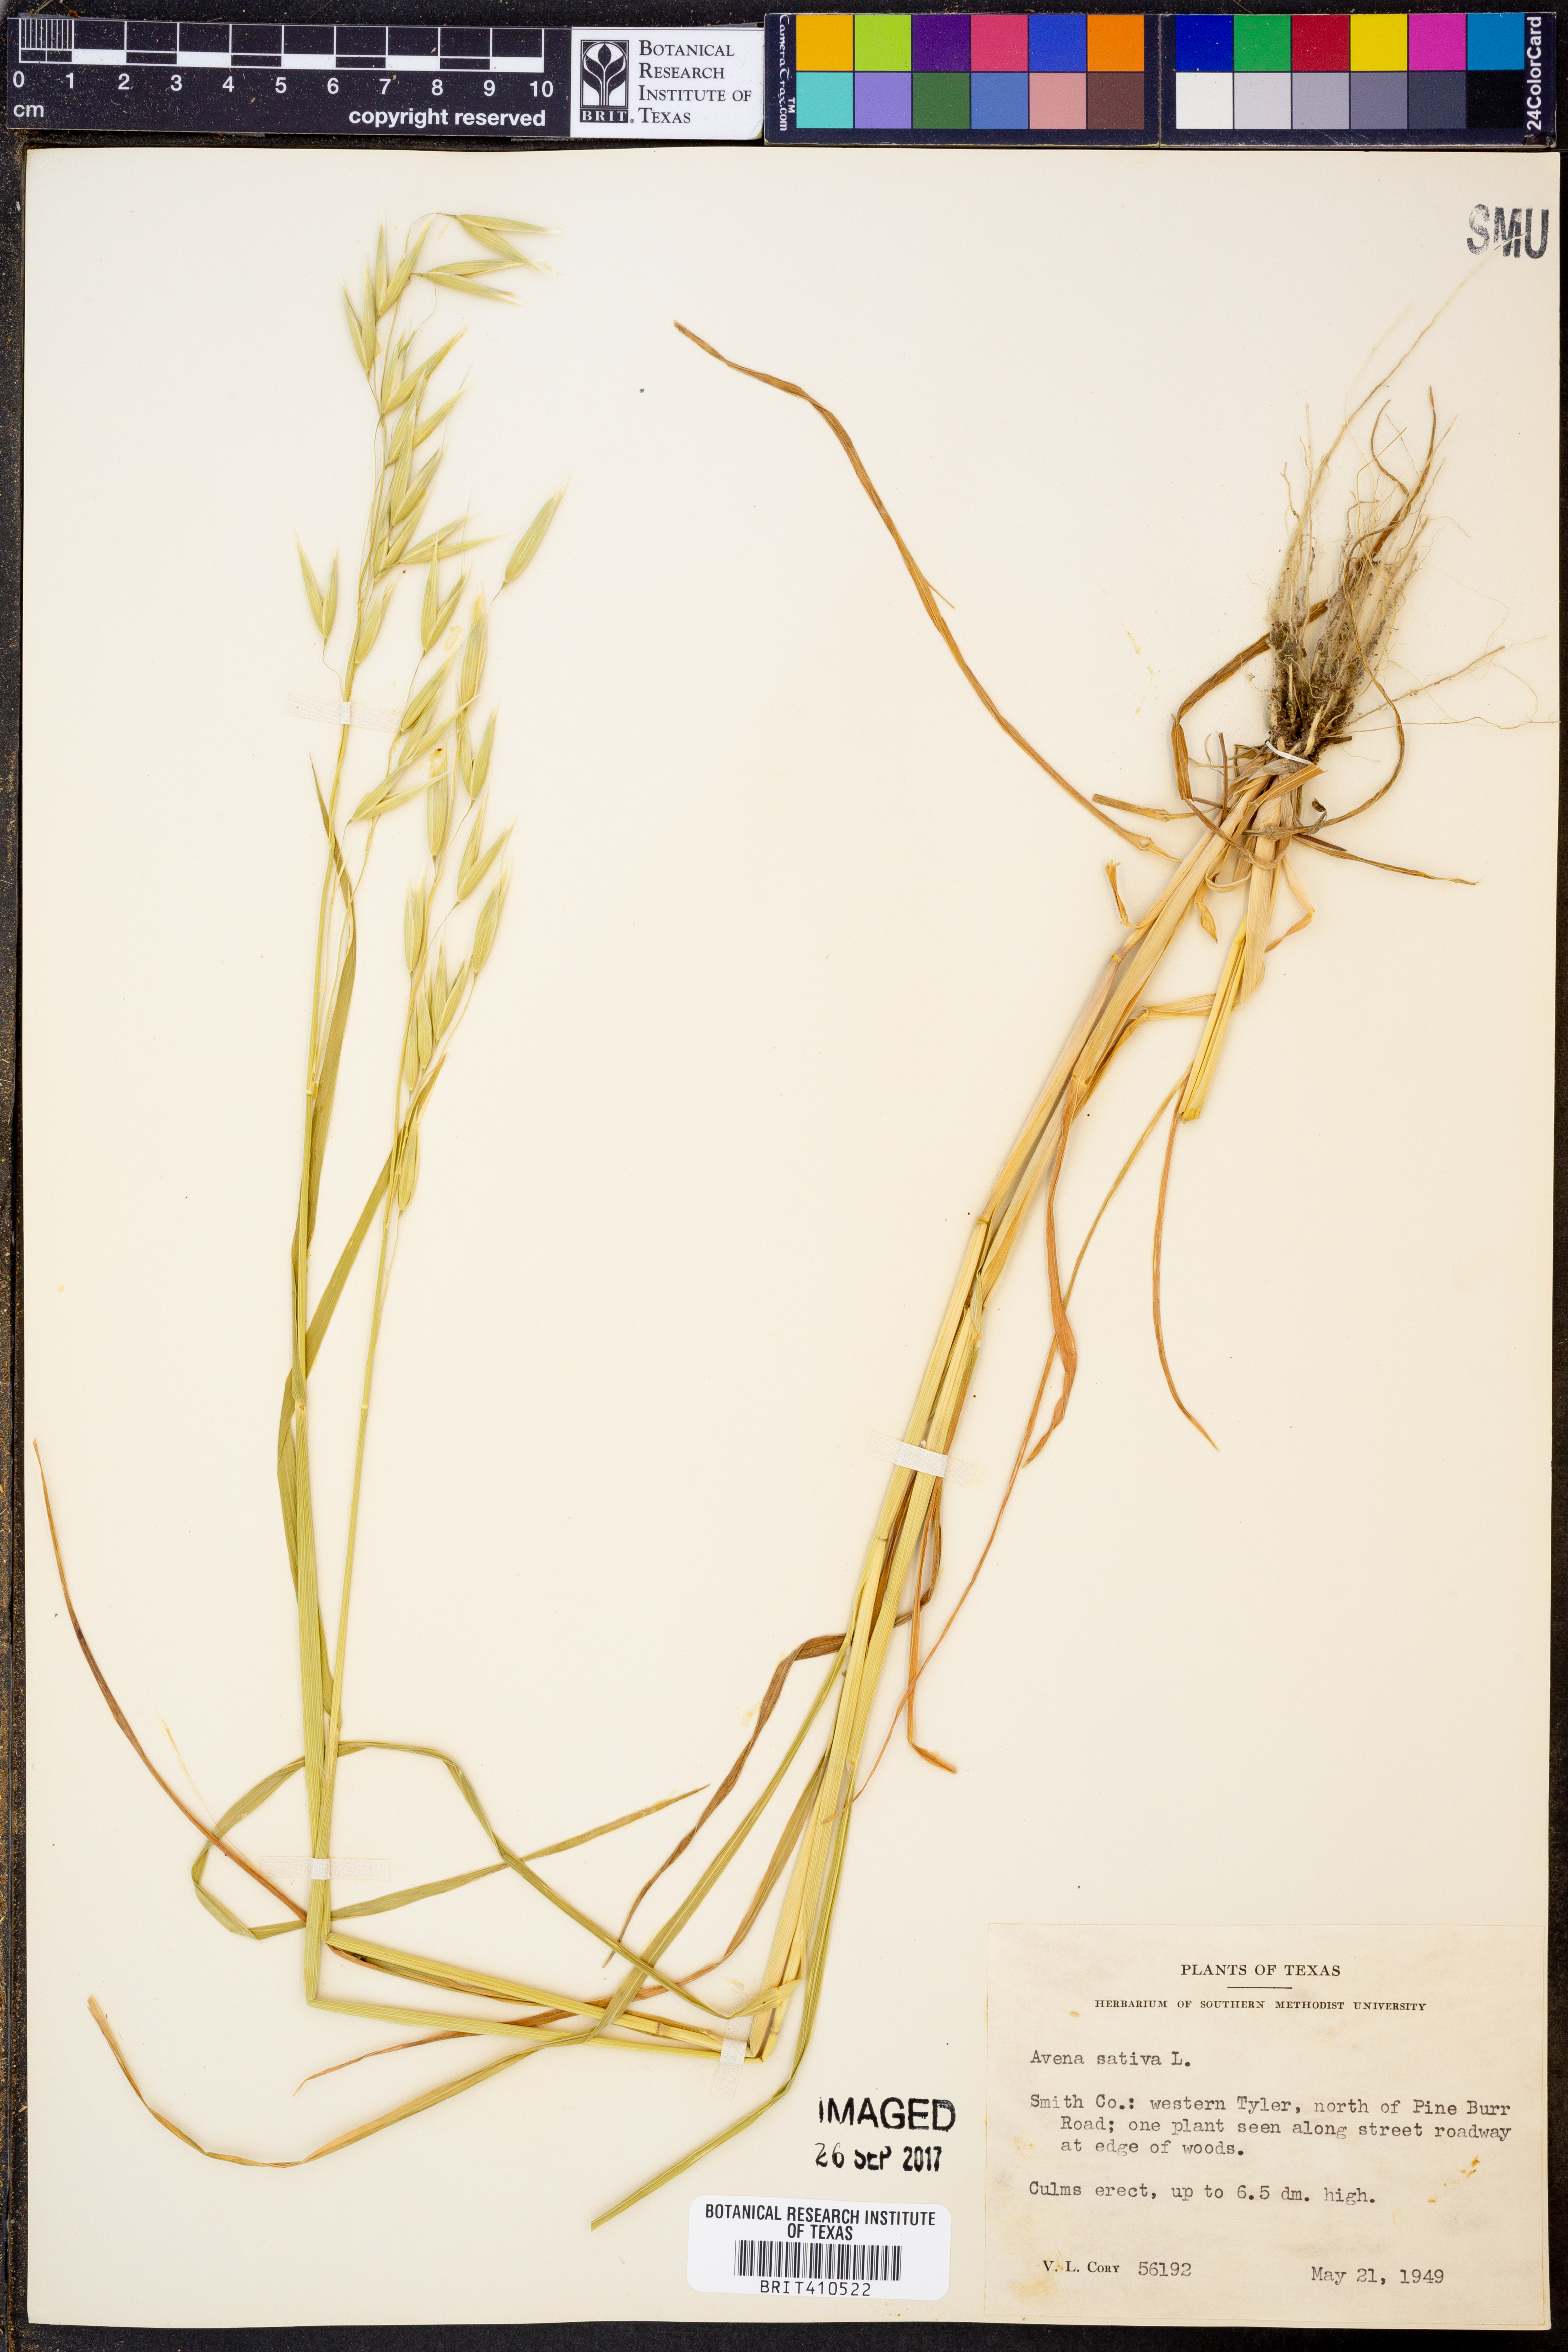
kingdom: Plantae
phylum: Tracheophyta
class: Liliopsida
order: Poales
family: Poaceae
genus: Avena
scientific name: Avena sativa
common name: Oat
